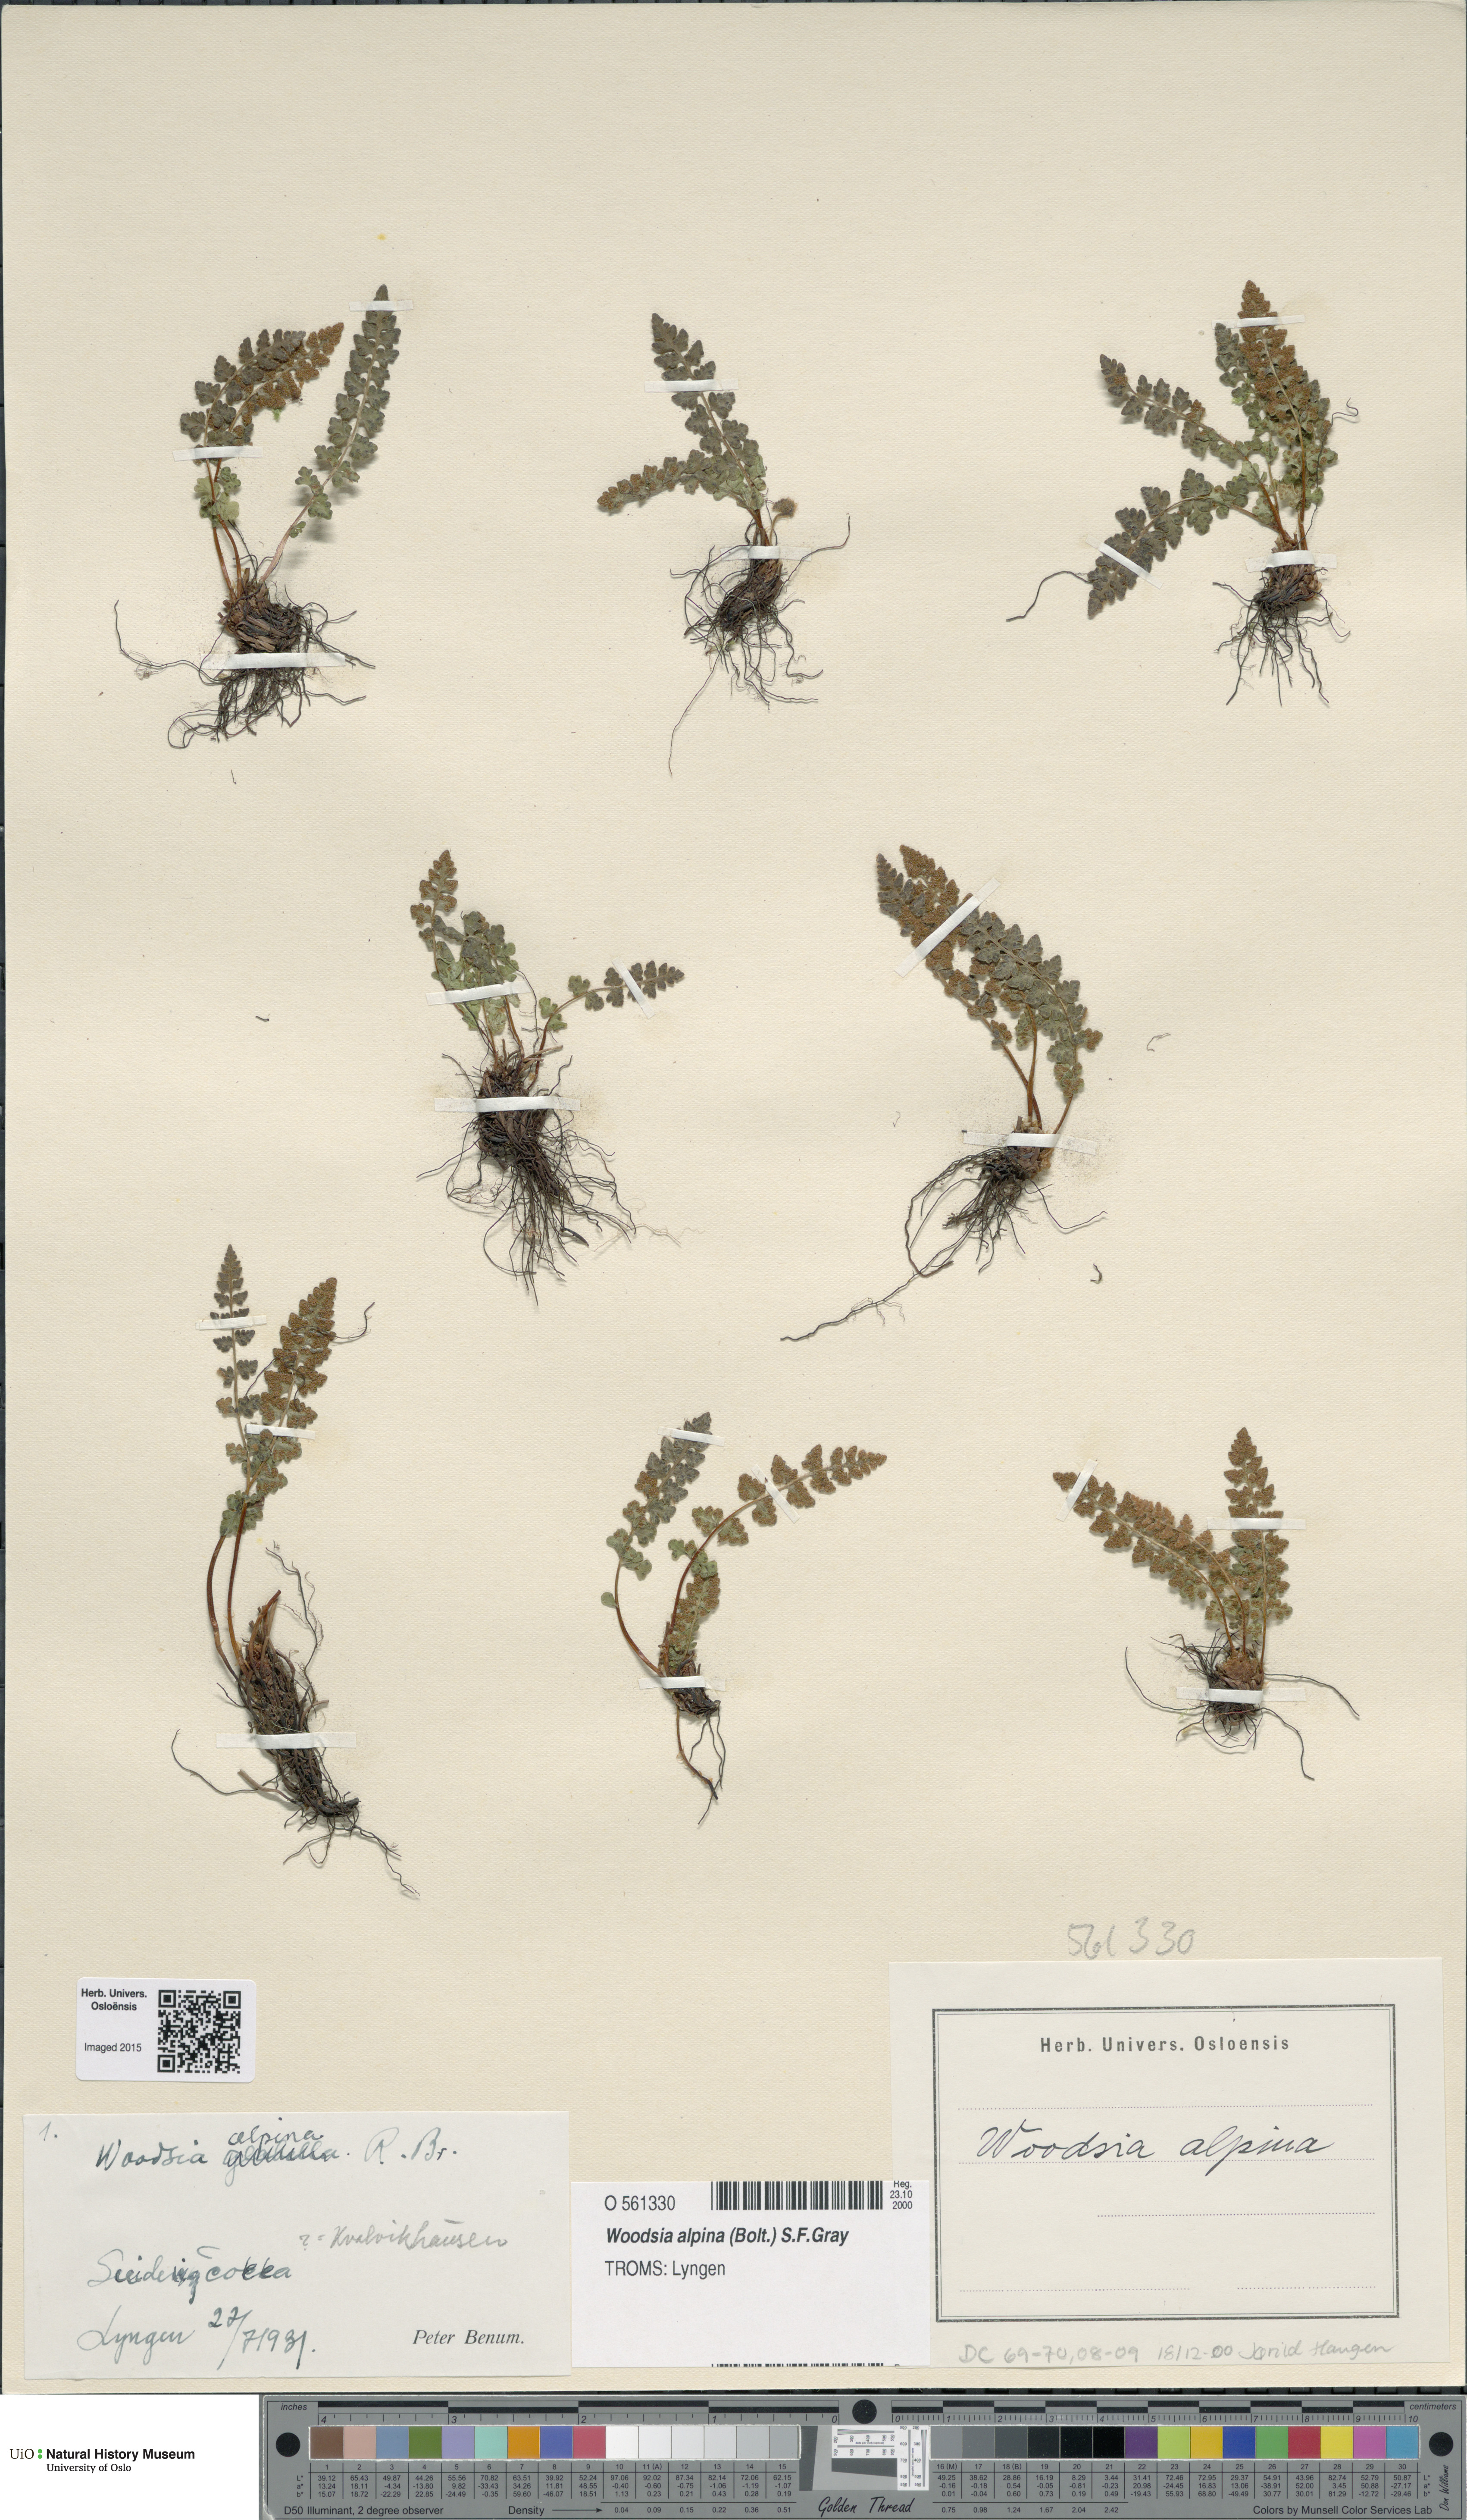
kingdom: Plantae
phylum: Tracheophyta
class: Polypodiopsida
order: Polypodiales
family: Woodsiaceae
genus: Woodsia
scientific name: Woodsia alpina
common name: Alpine woodsia
